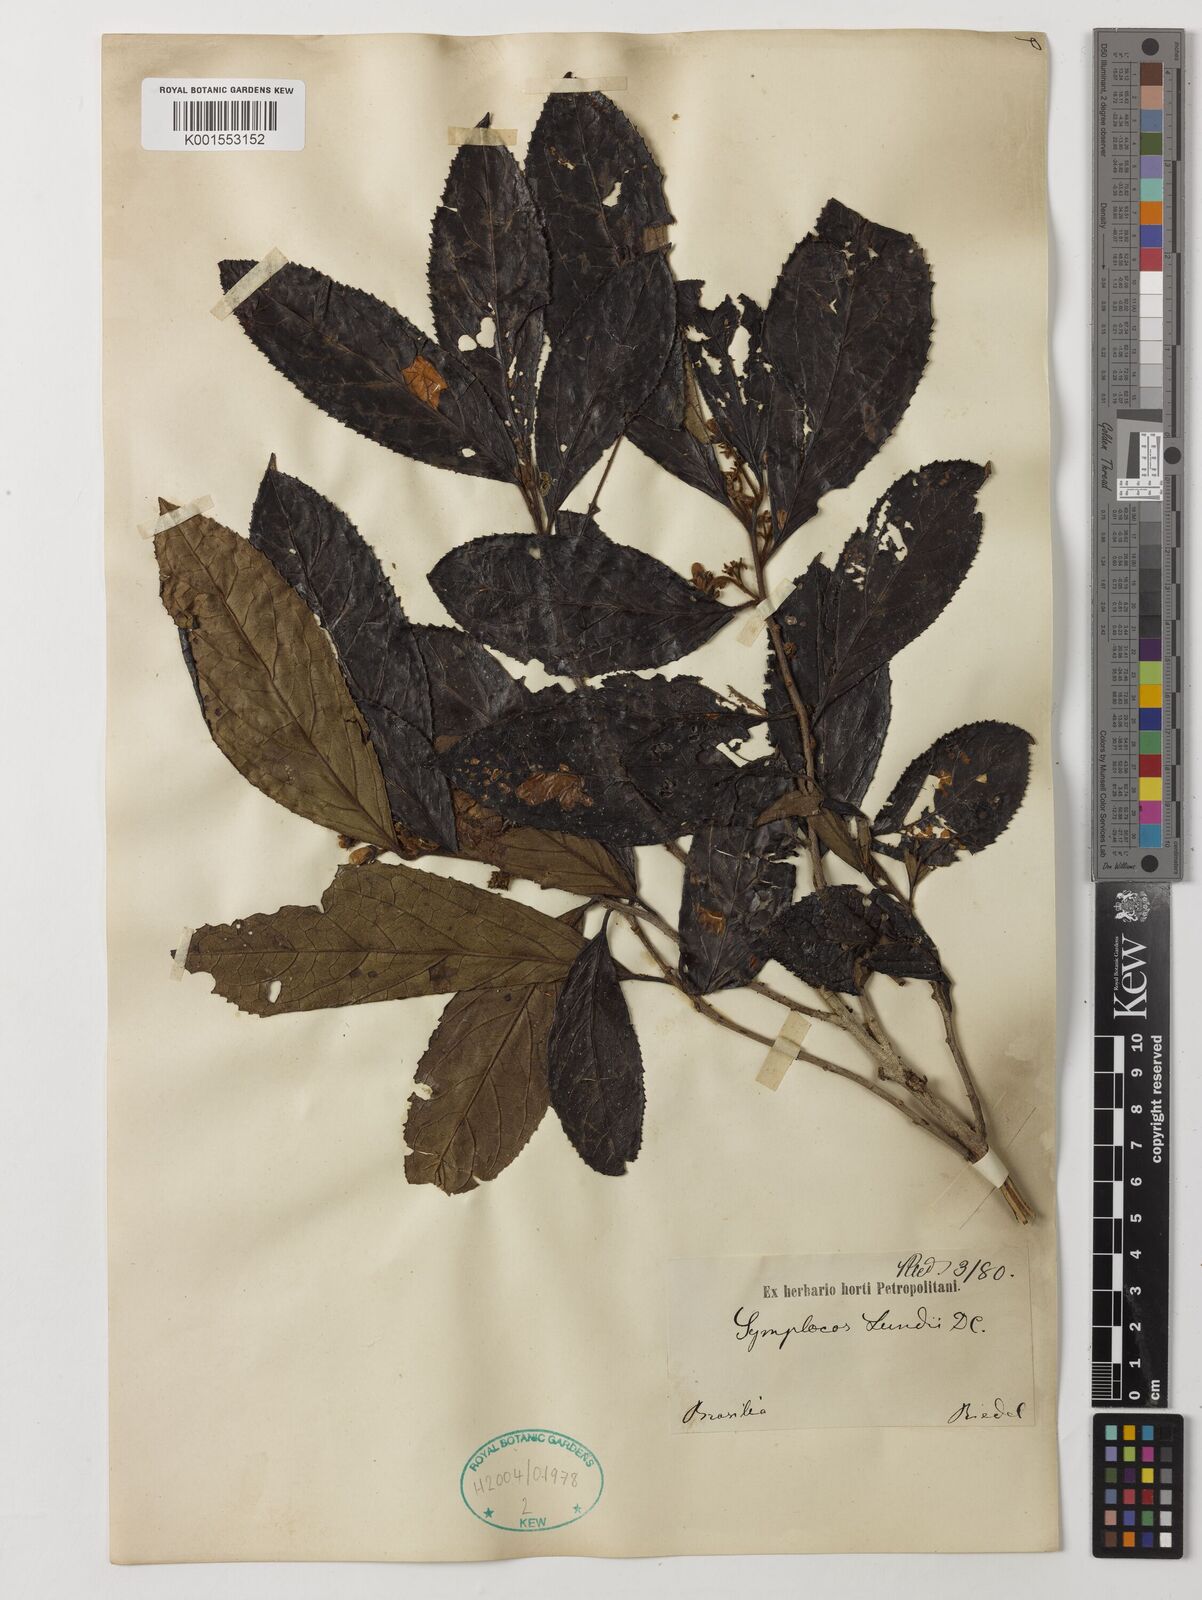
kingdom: Plantae
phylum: Tracheophyta
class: Magnoliopsida
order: Ericales
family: Symplocaceae
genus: Symplocos
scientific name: Symplocos platyphylla
